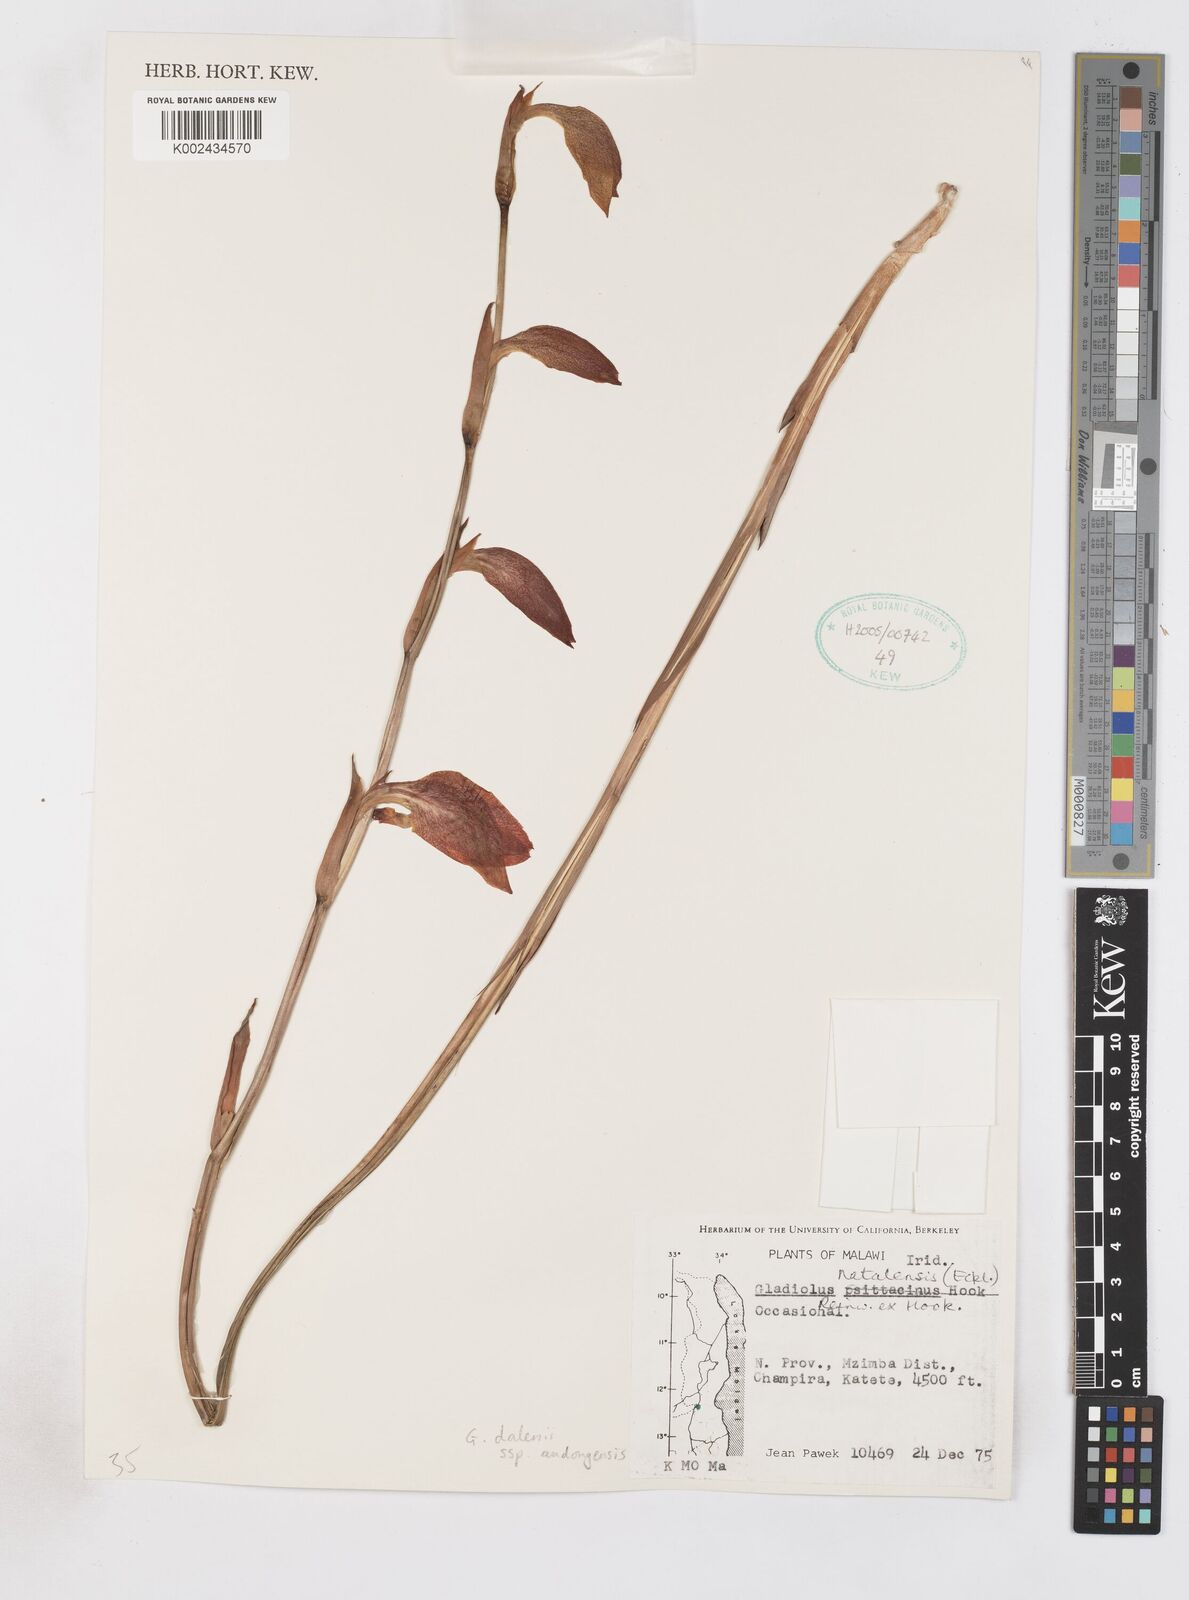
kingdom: Plantae
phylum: Tracheophyta
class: Liliopsida
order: Asparagales
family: Iridaceae
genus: Gladiolus
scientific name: Gladiolus dalenii
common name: Cornflag
